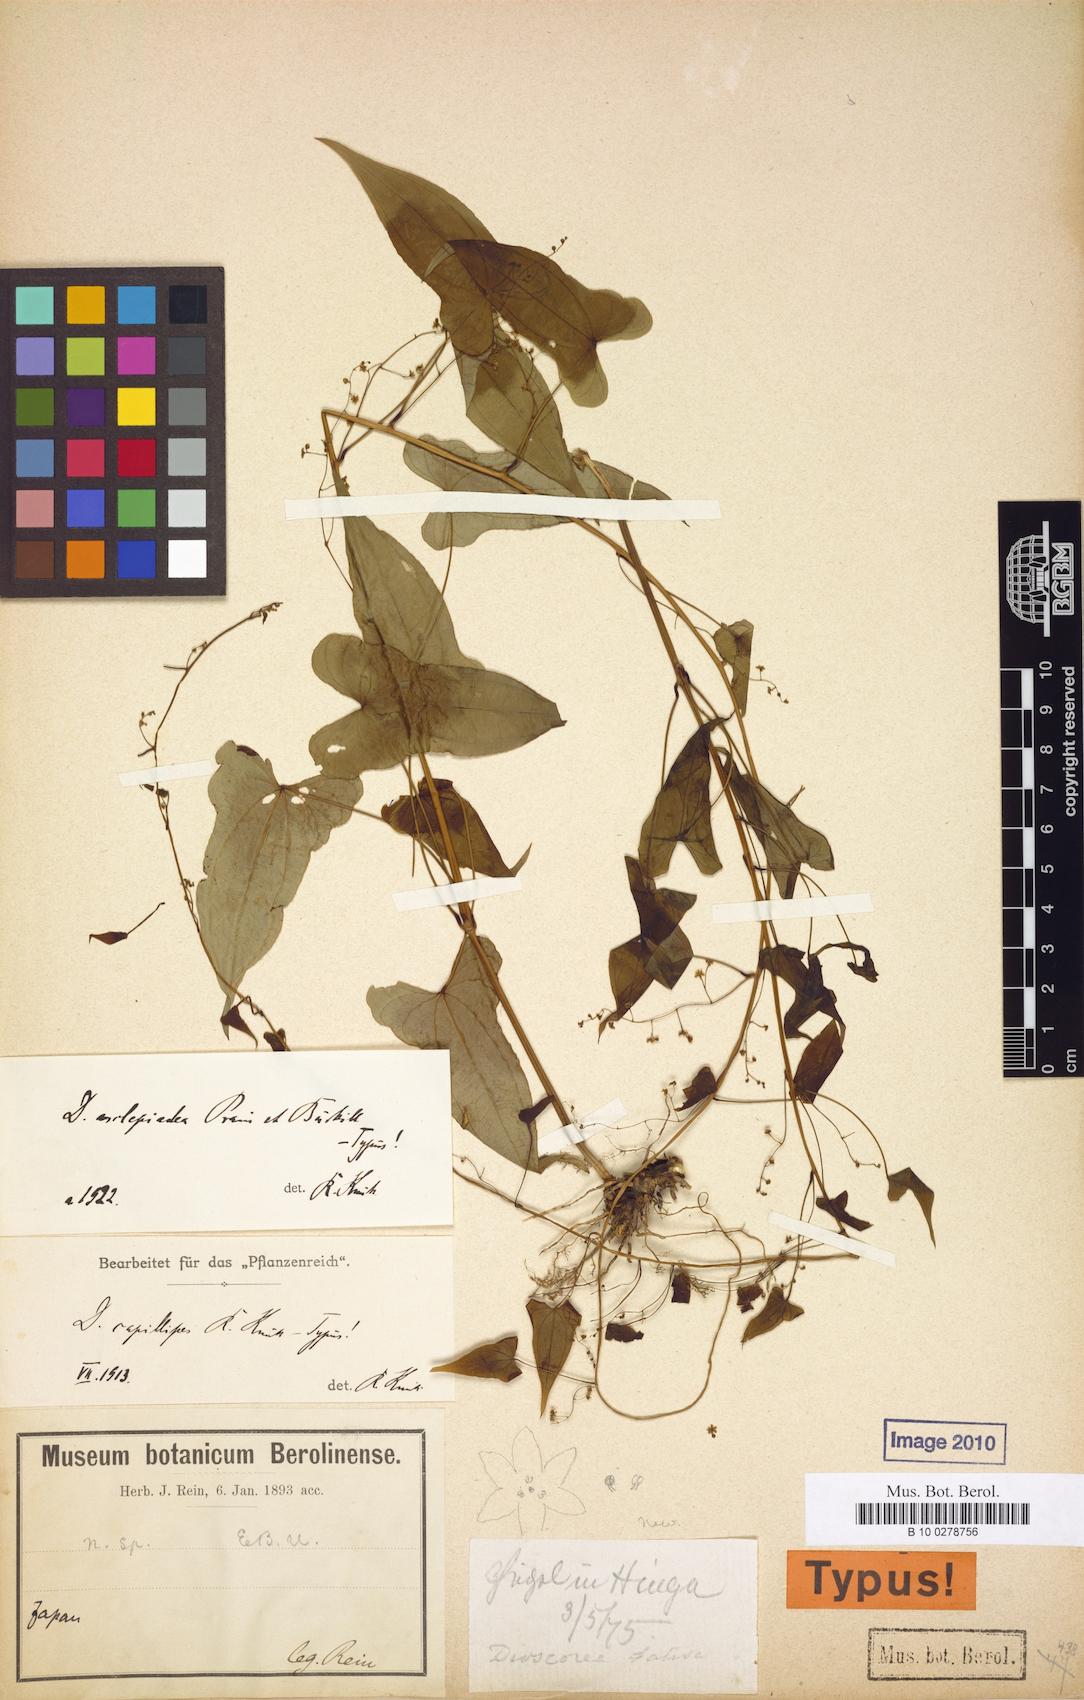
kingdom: Plantae
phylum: Tracheophyta
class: Liliopsida
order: Dioscoreales
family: Dioscoreaceae
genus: Dioscorea
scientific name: Dioscorea asclepiadea
